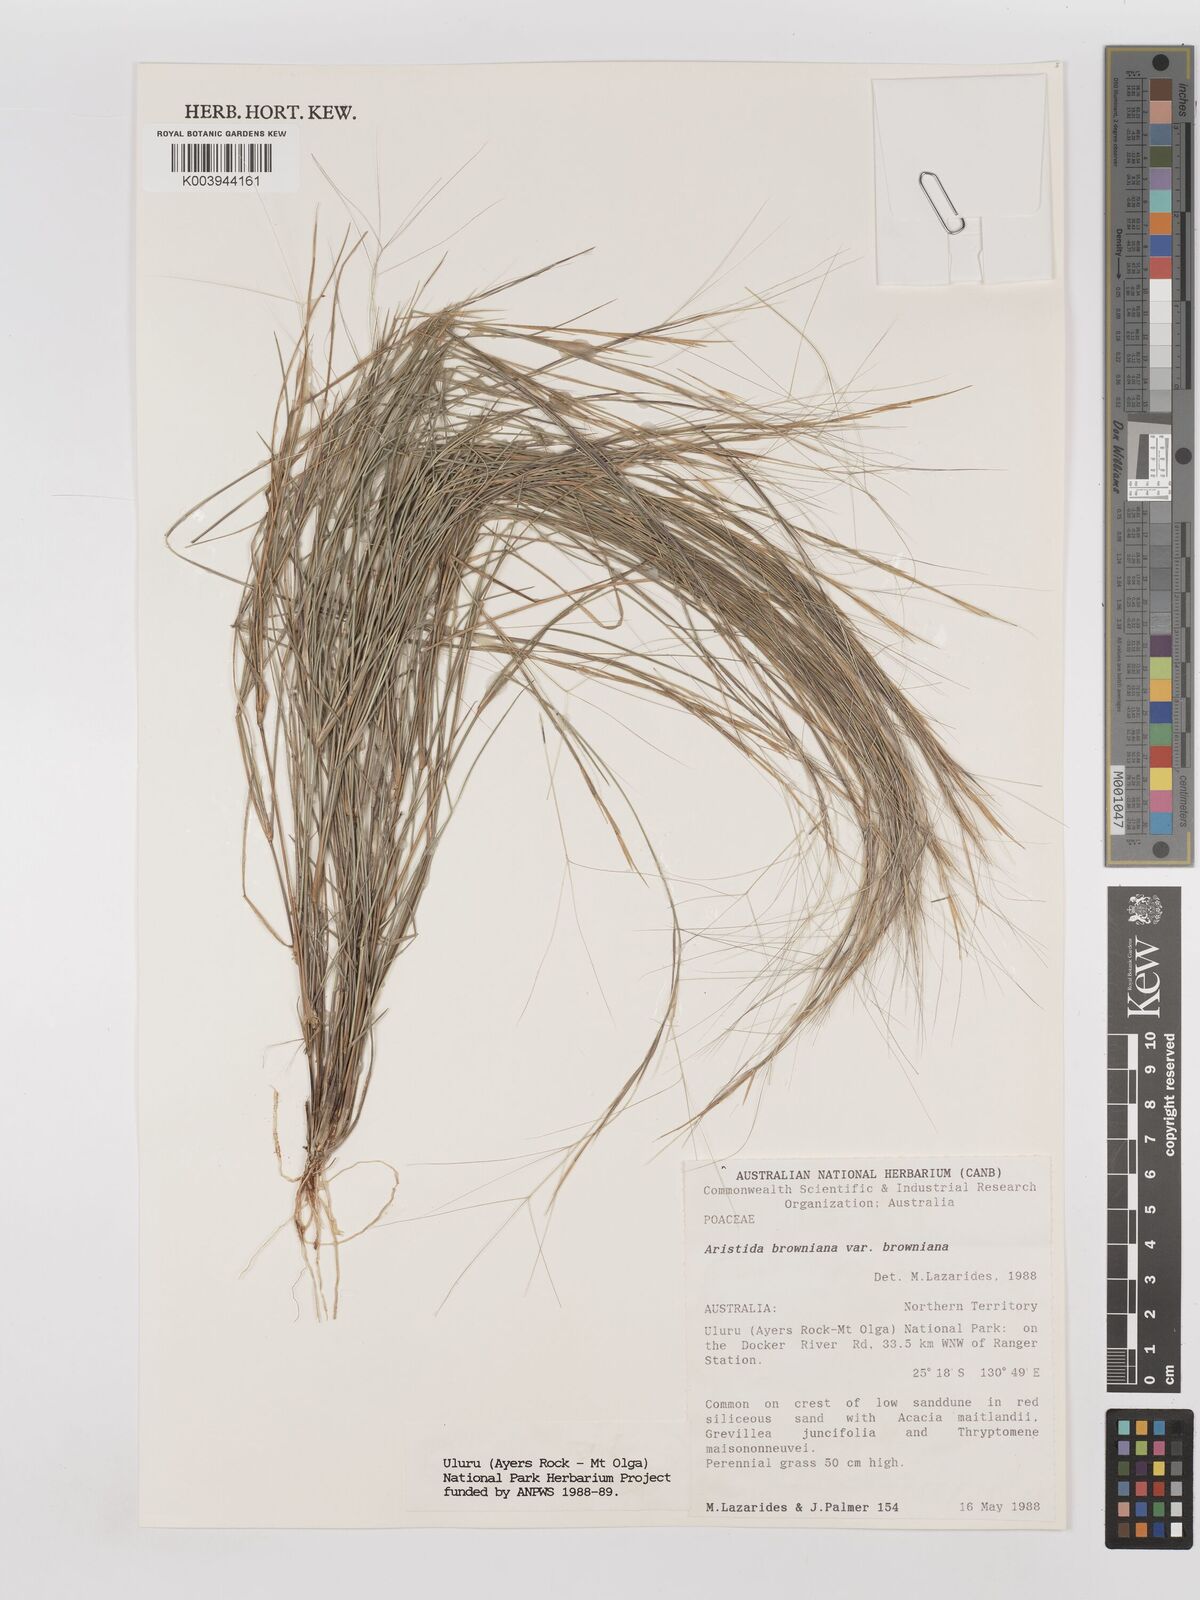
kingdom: Plantae
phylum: Tracheophyta
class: Liliopsida
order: Poales
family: Poaceae
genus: Aristida
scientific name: Aristida holathera
